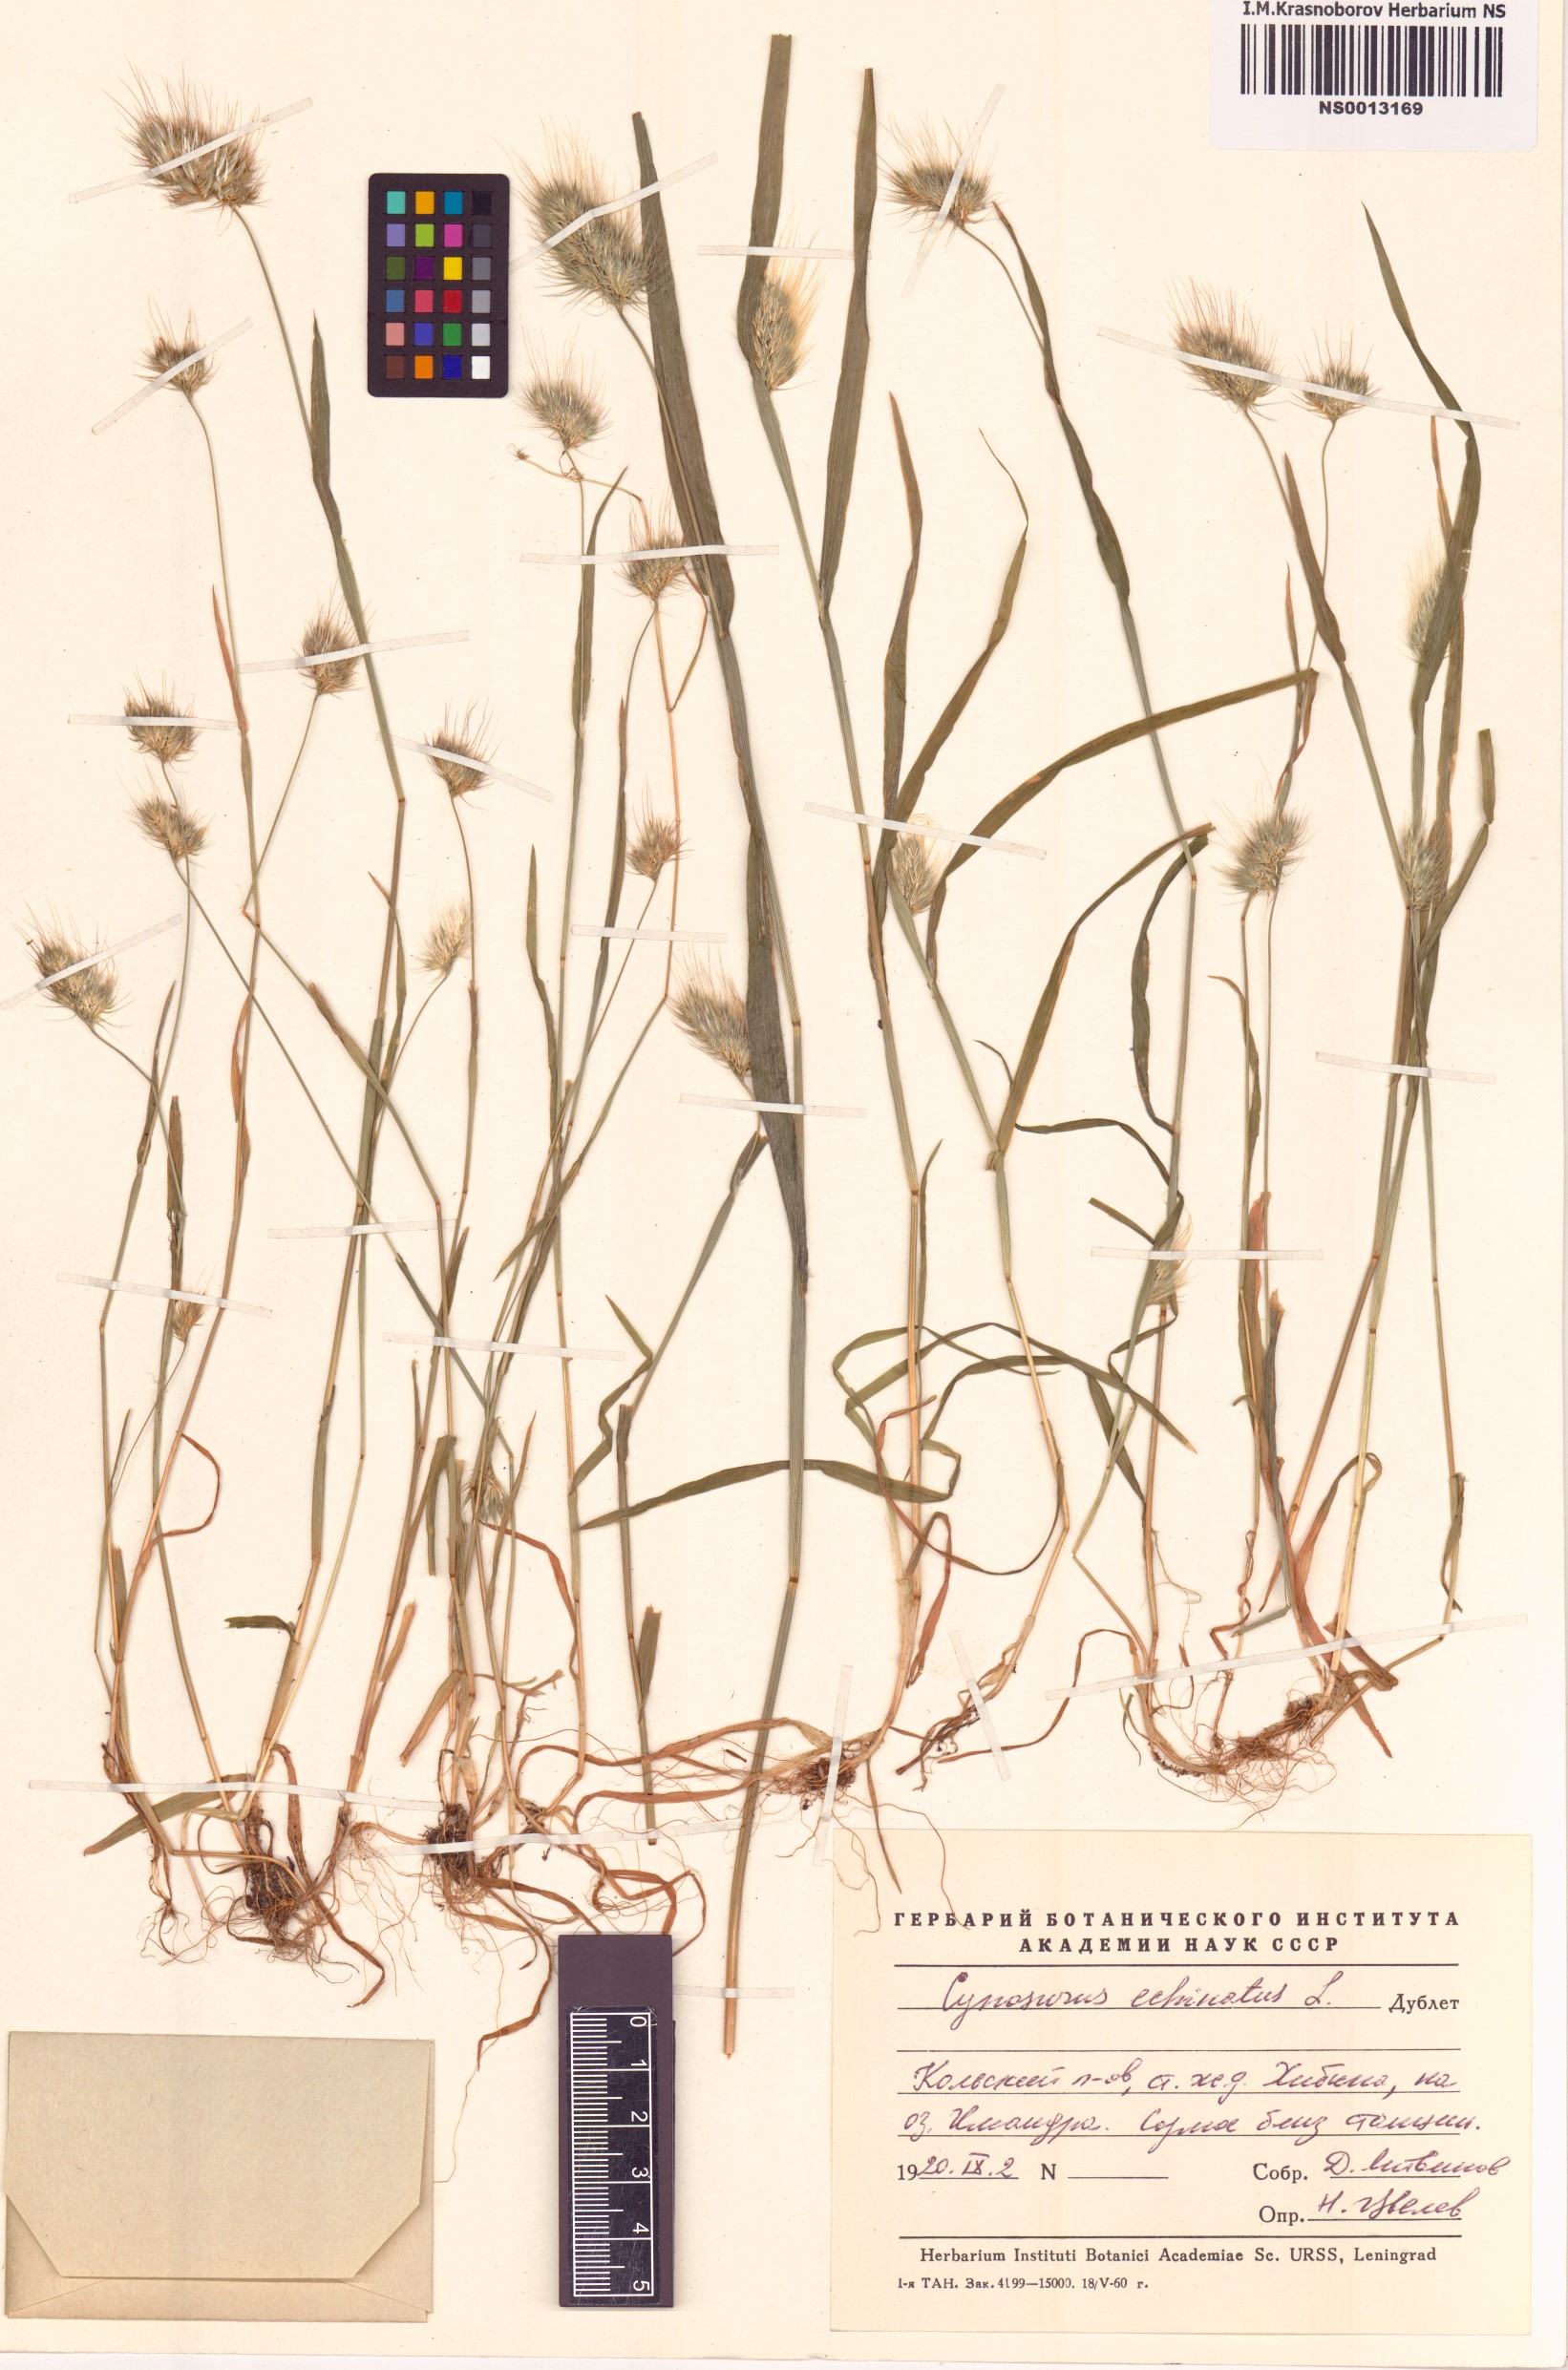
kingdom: Plantae
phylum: Tracheophyta
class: Liliopsida
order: Poales
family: Poaceae
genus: Cynosurus
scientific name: Cynosurus echinatus
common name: Rough dog's-tail
